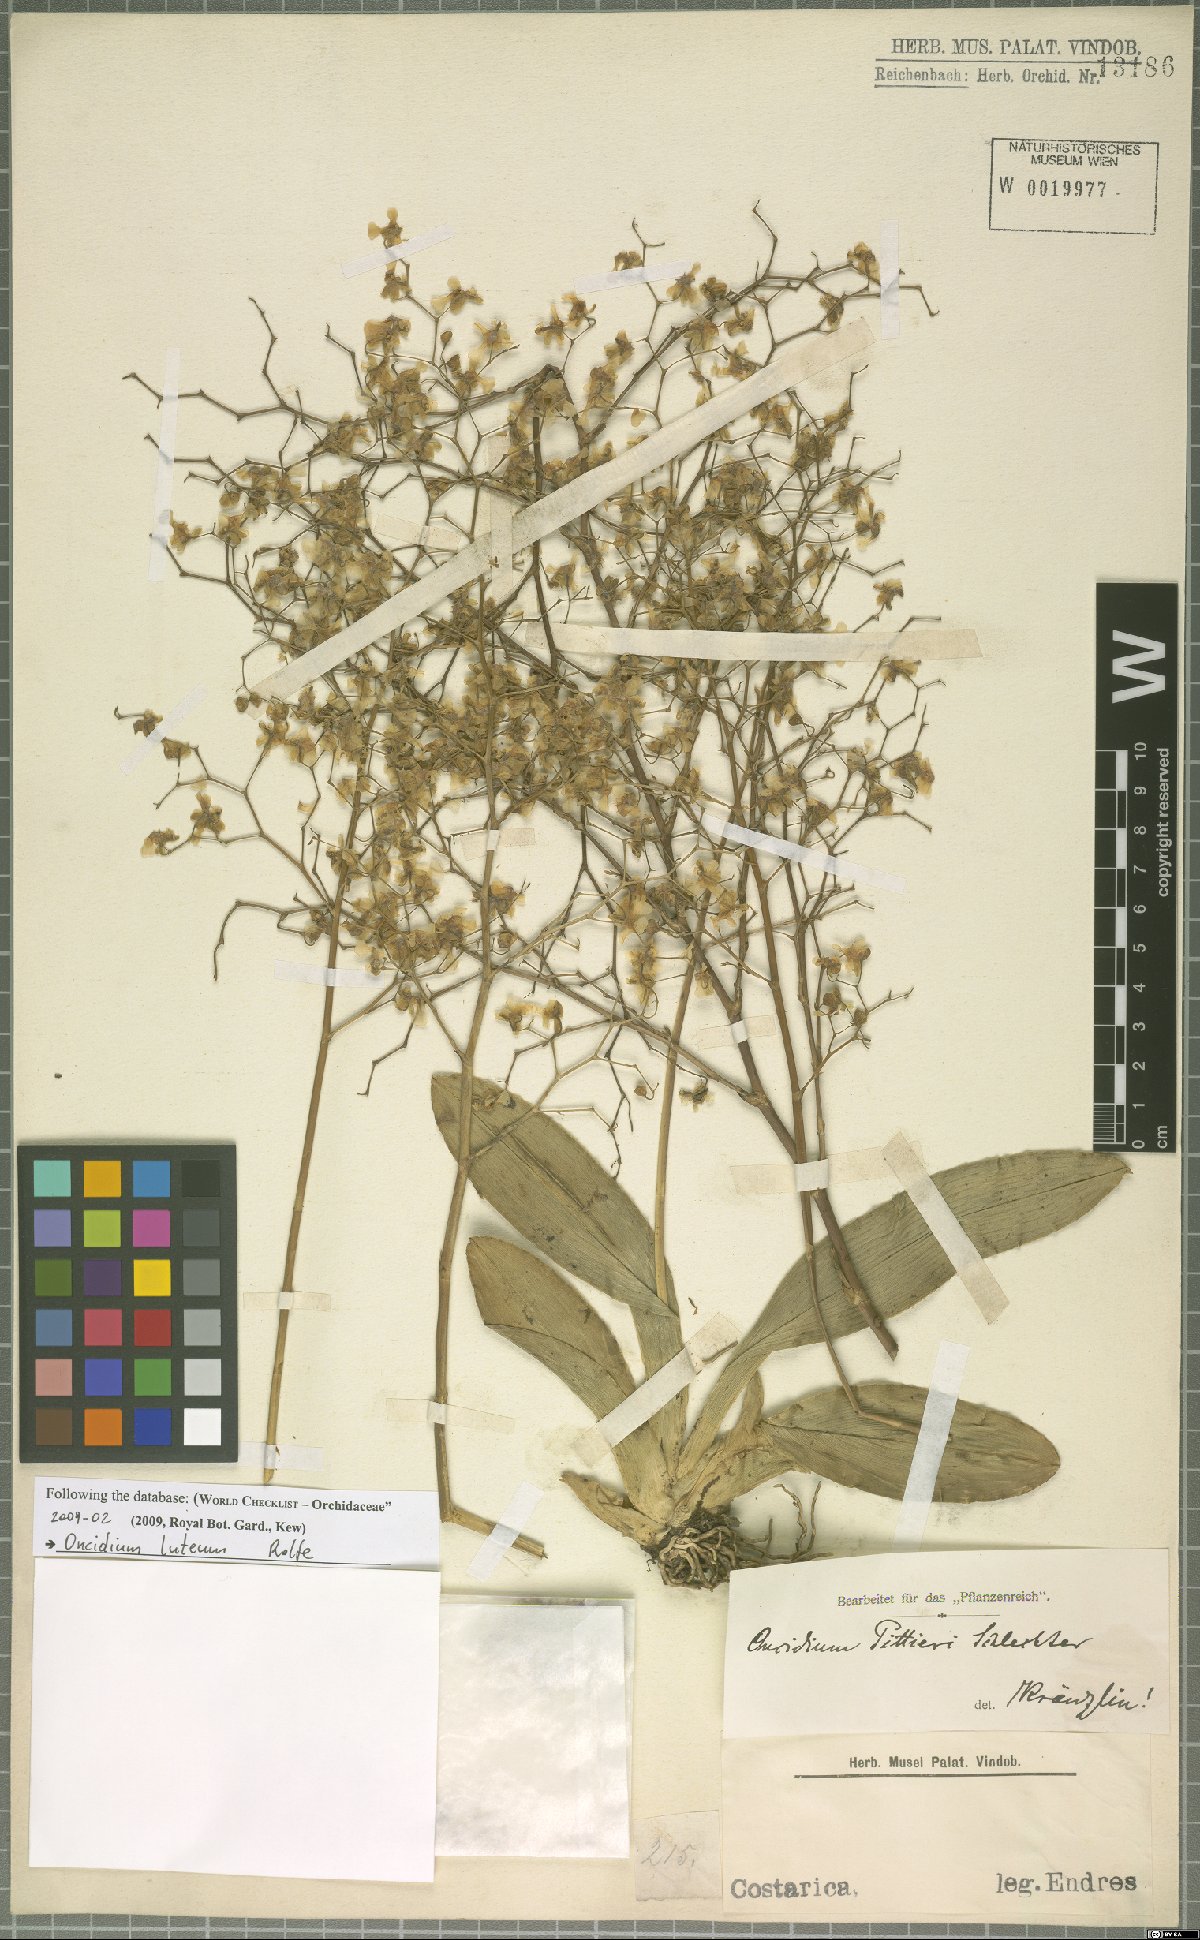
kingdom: Plantae
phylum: Tracheophyta
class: Liliopsida
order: Asparagales
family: Orchidaceae
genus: Oncidium
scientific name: Oncidium luteum
